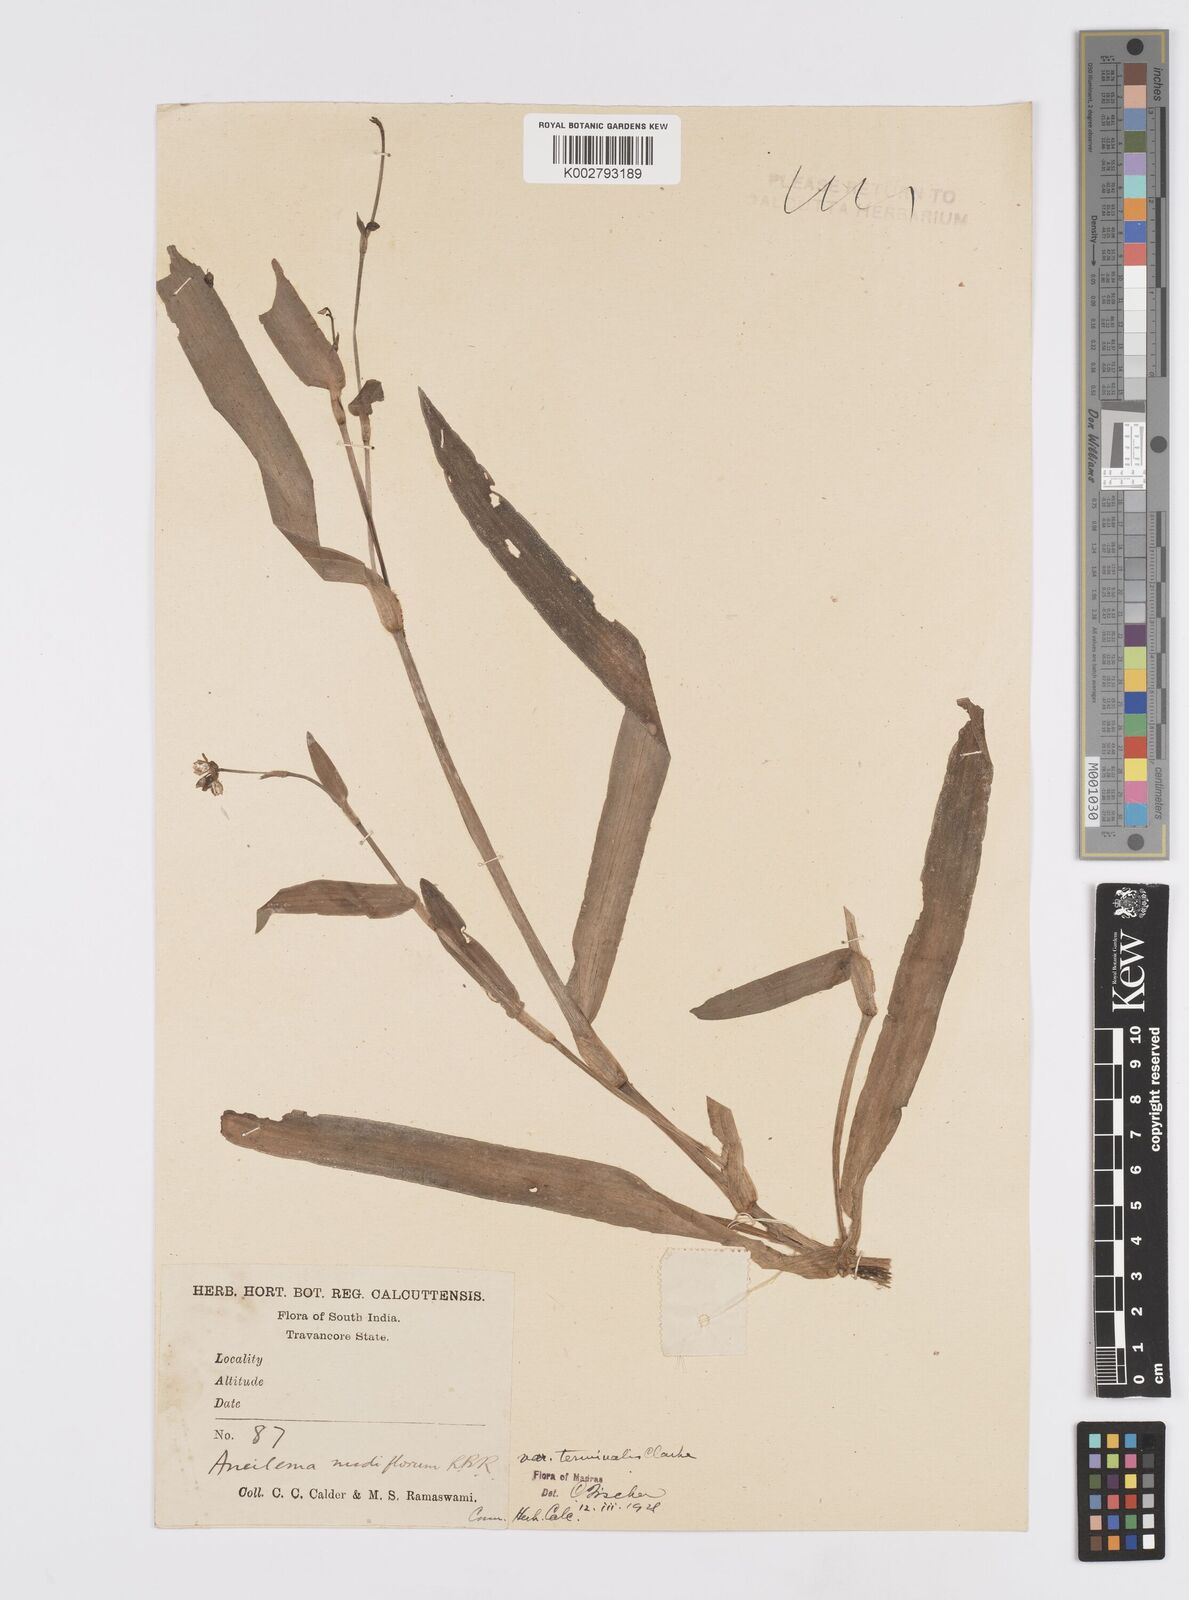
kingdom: Plantae
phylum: Tracheophyta
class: Liliopsida
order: Commelinales
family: Commelinaceae
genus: Murdannia
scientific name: Murdannia nudiflora
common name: Nakedstem dewflower
